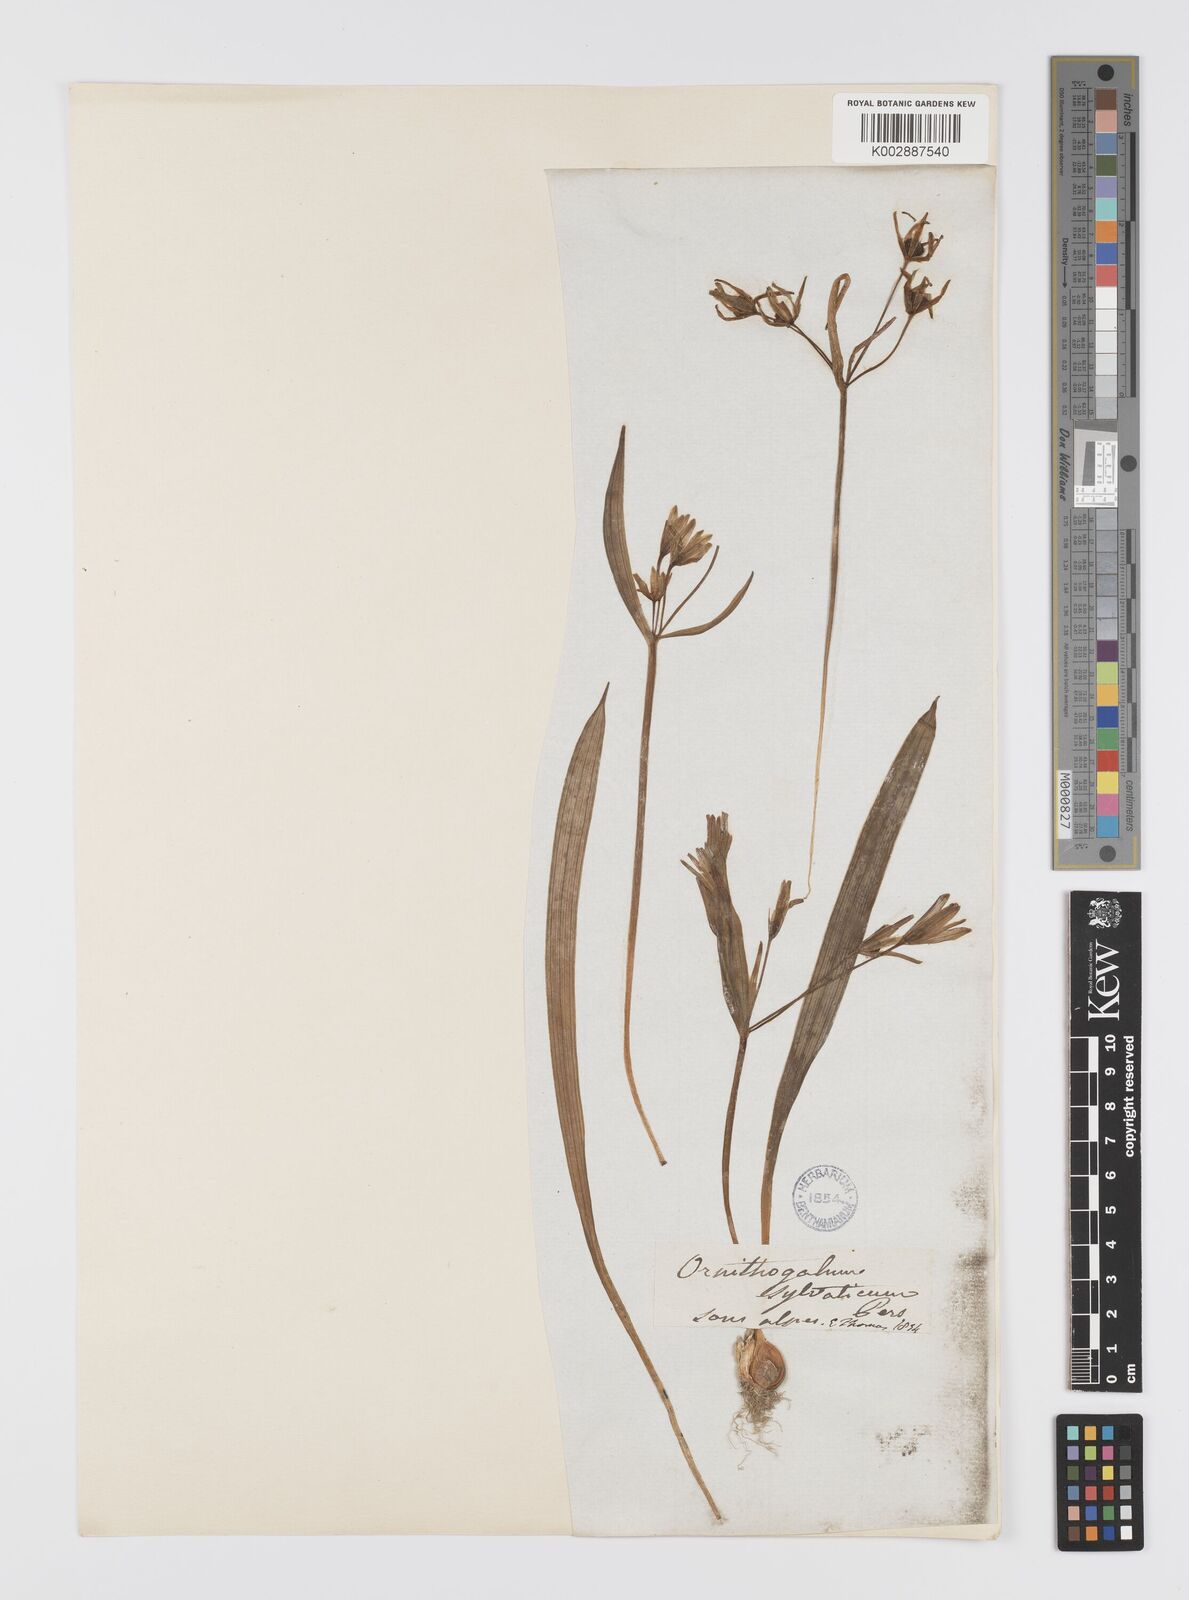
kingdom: Plantae
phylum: Tracheophyta
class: Liliopsida
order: Liliales
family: Liliaceae
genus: Gagea
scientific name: Gagea lutea
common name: Yellow star-of-bethlehem
